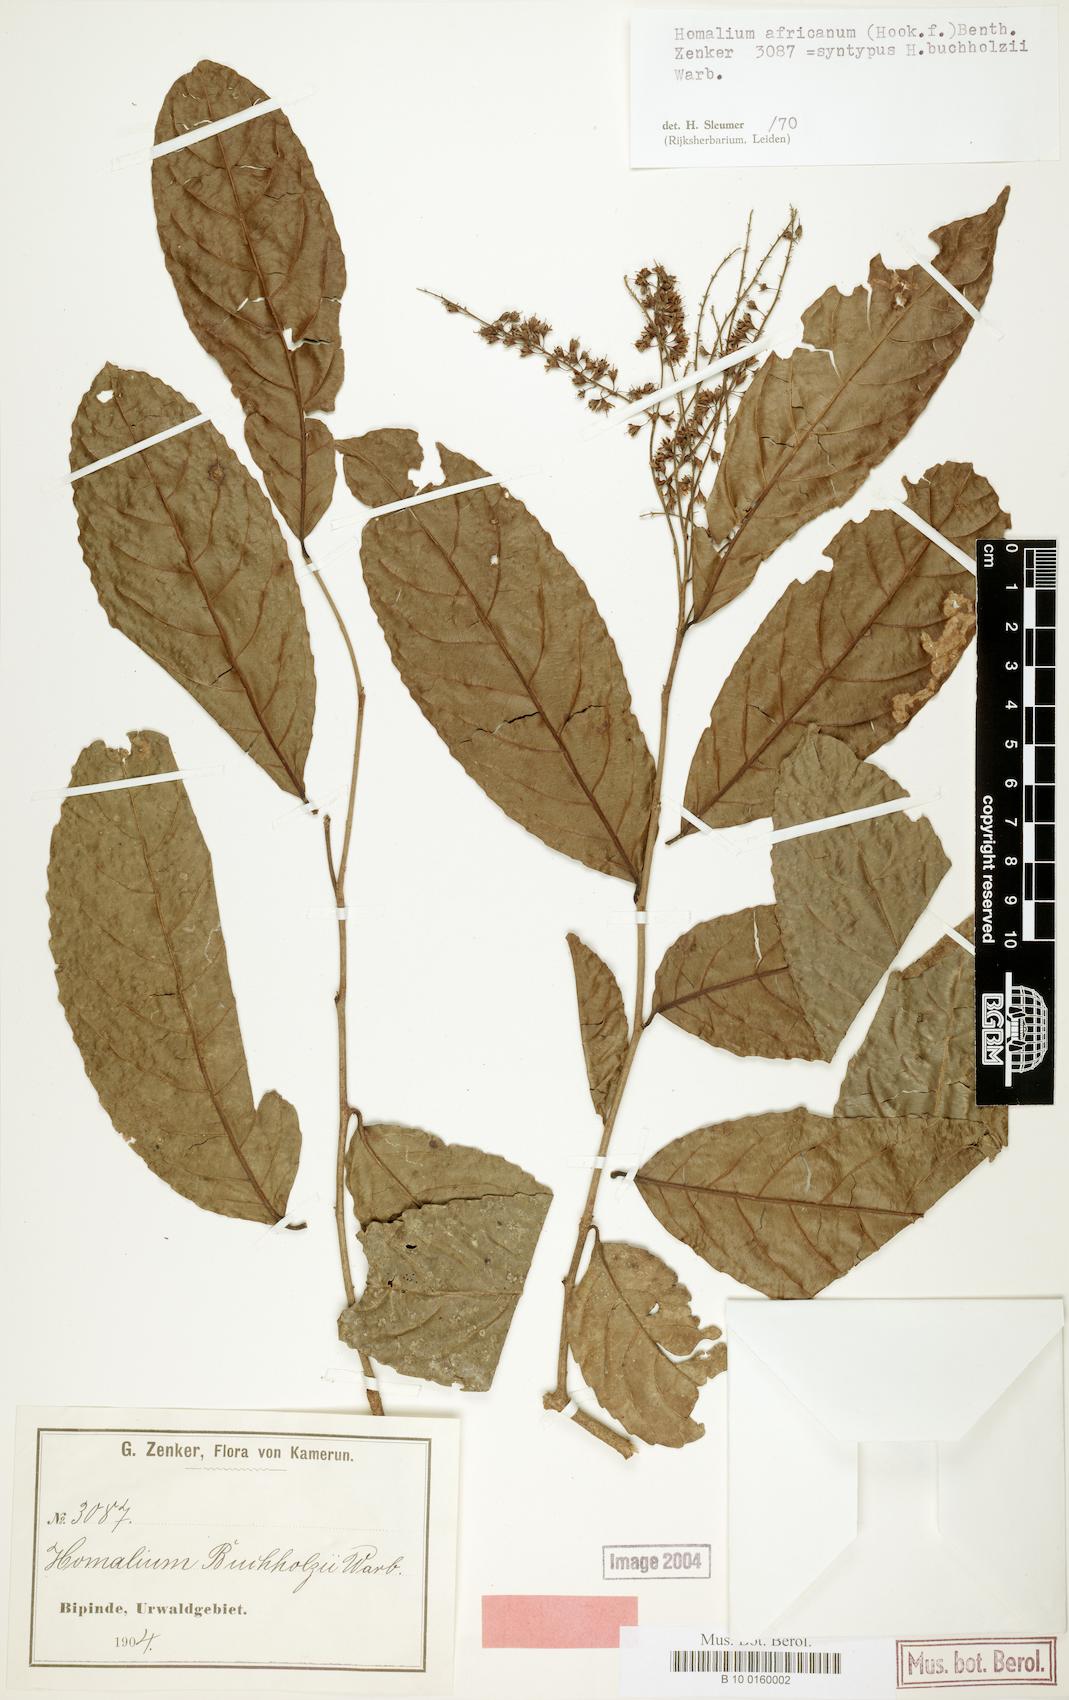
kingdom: Plantae
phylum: Tracheophyta
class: Magnoliopsida
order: Malpighiales
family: Salicaceae
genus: Homalium
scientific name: Homalium africanum
